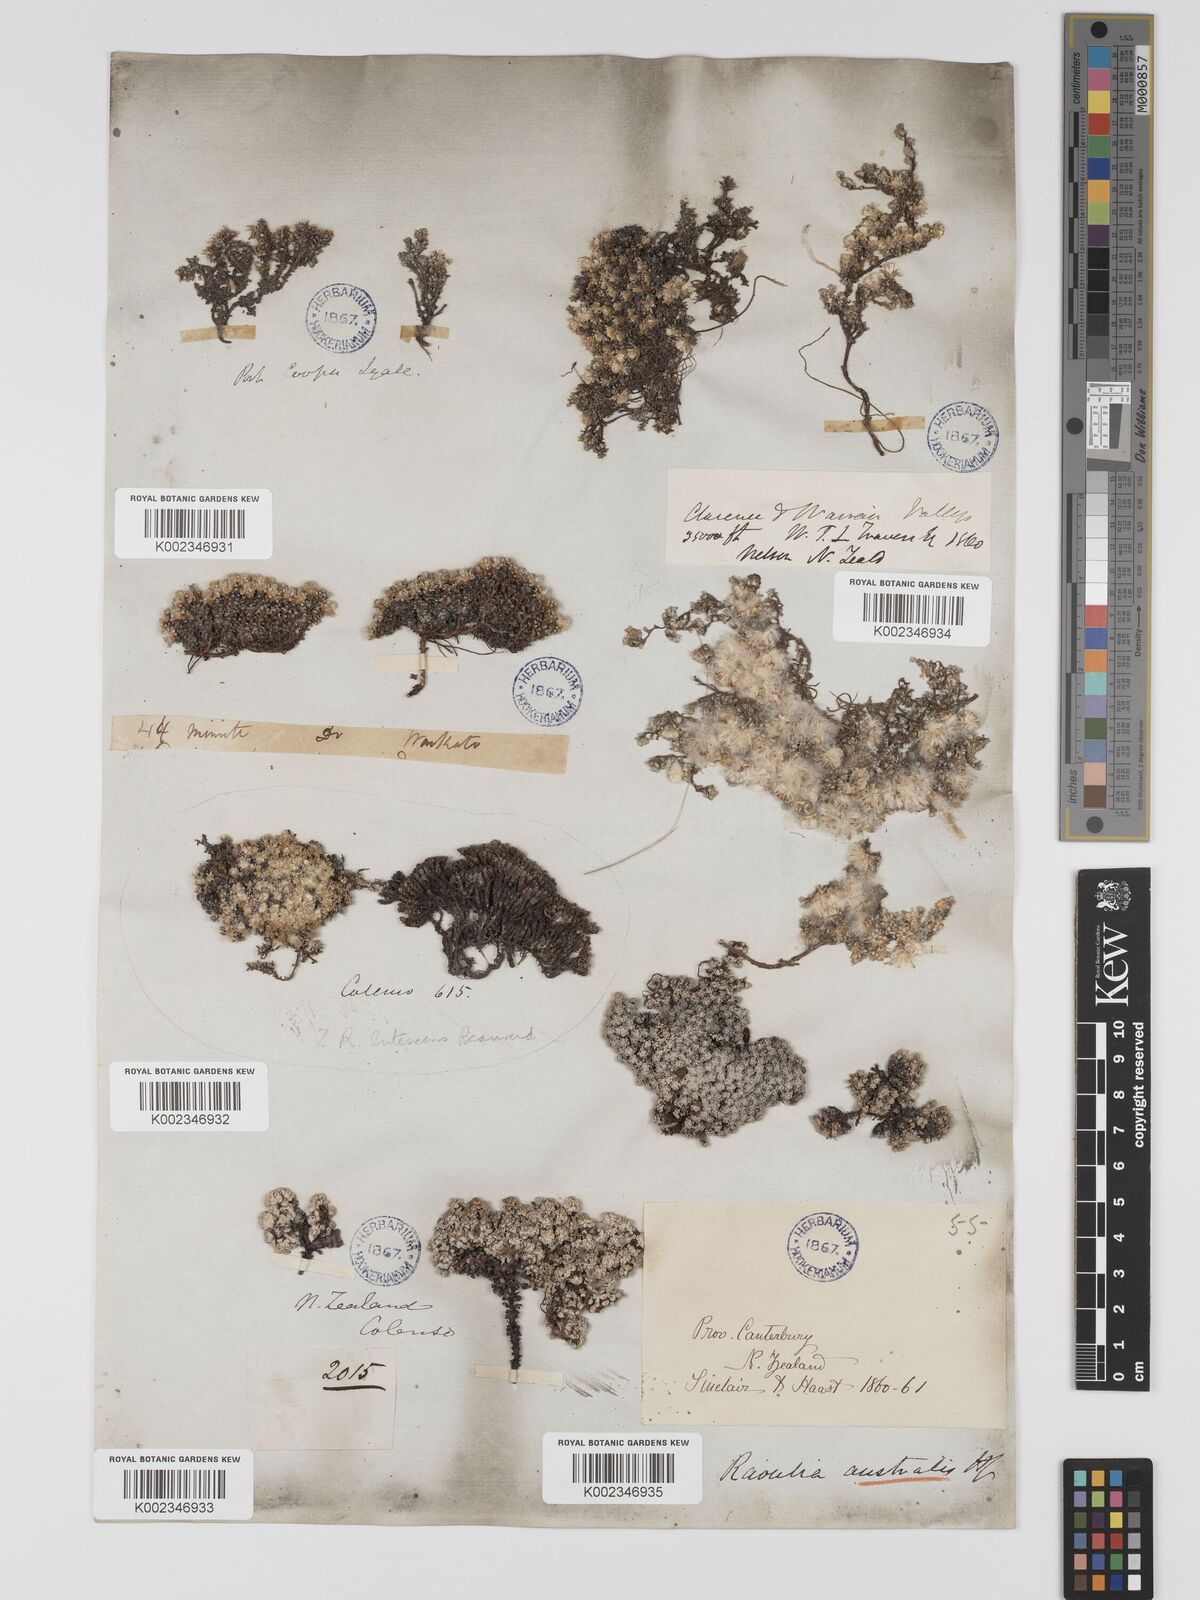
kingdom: Plantae
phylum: Tracheophyta
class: Magnoliopsida
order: Asterales
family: Asteraceae
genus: Raoulia
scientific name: Raoulia
